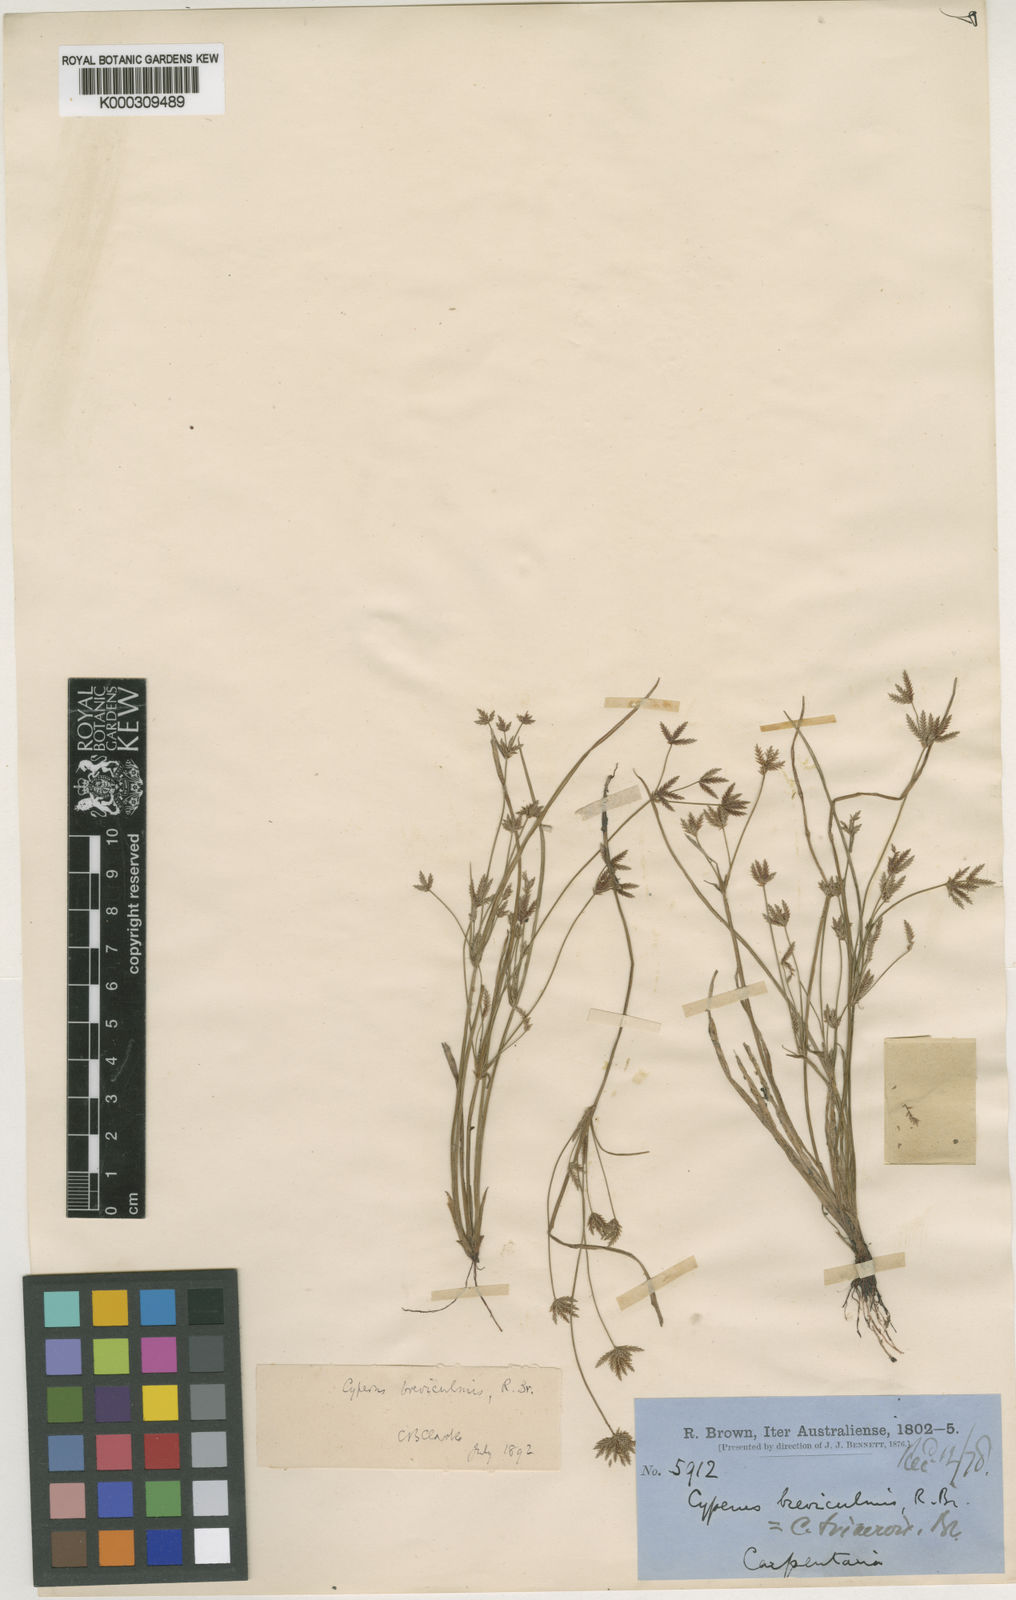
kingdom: Plantae
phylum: Tracheophyta
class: Liliopsida
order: Poales
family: Cyperaceae
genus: Cyperus
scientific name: Cyperus trinervis
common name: Australian flatsedge
